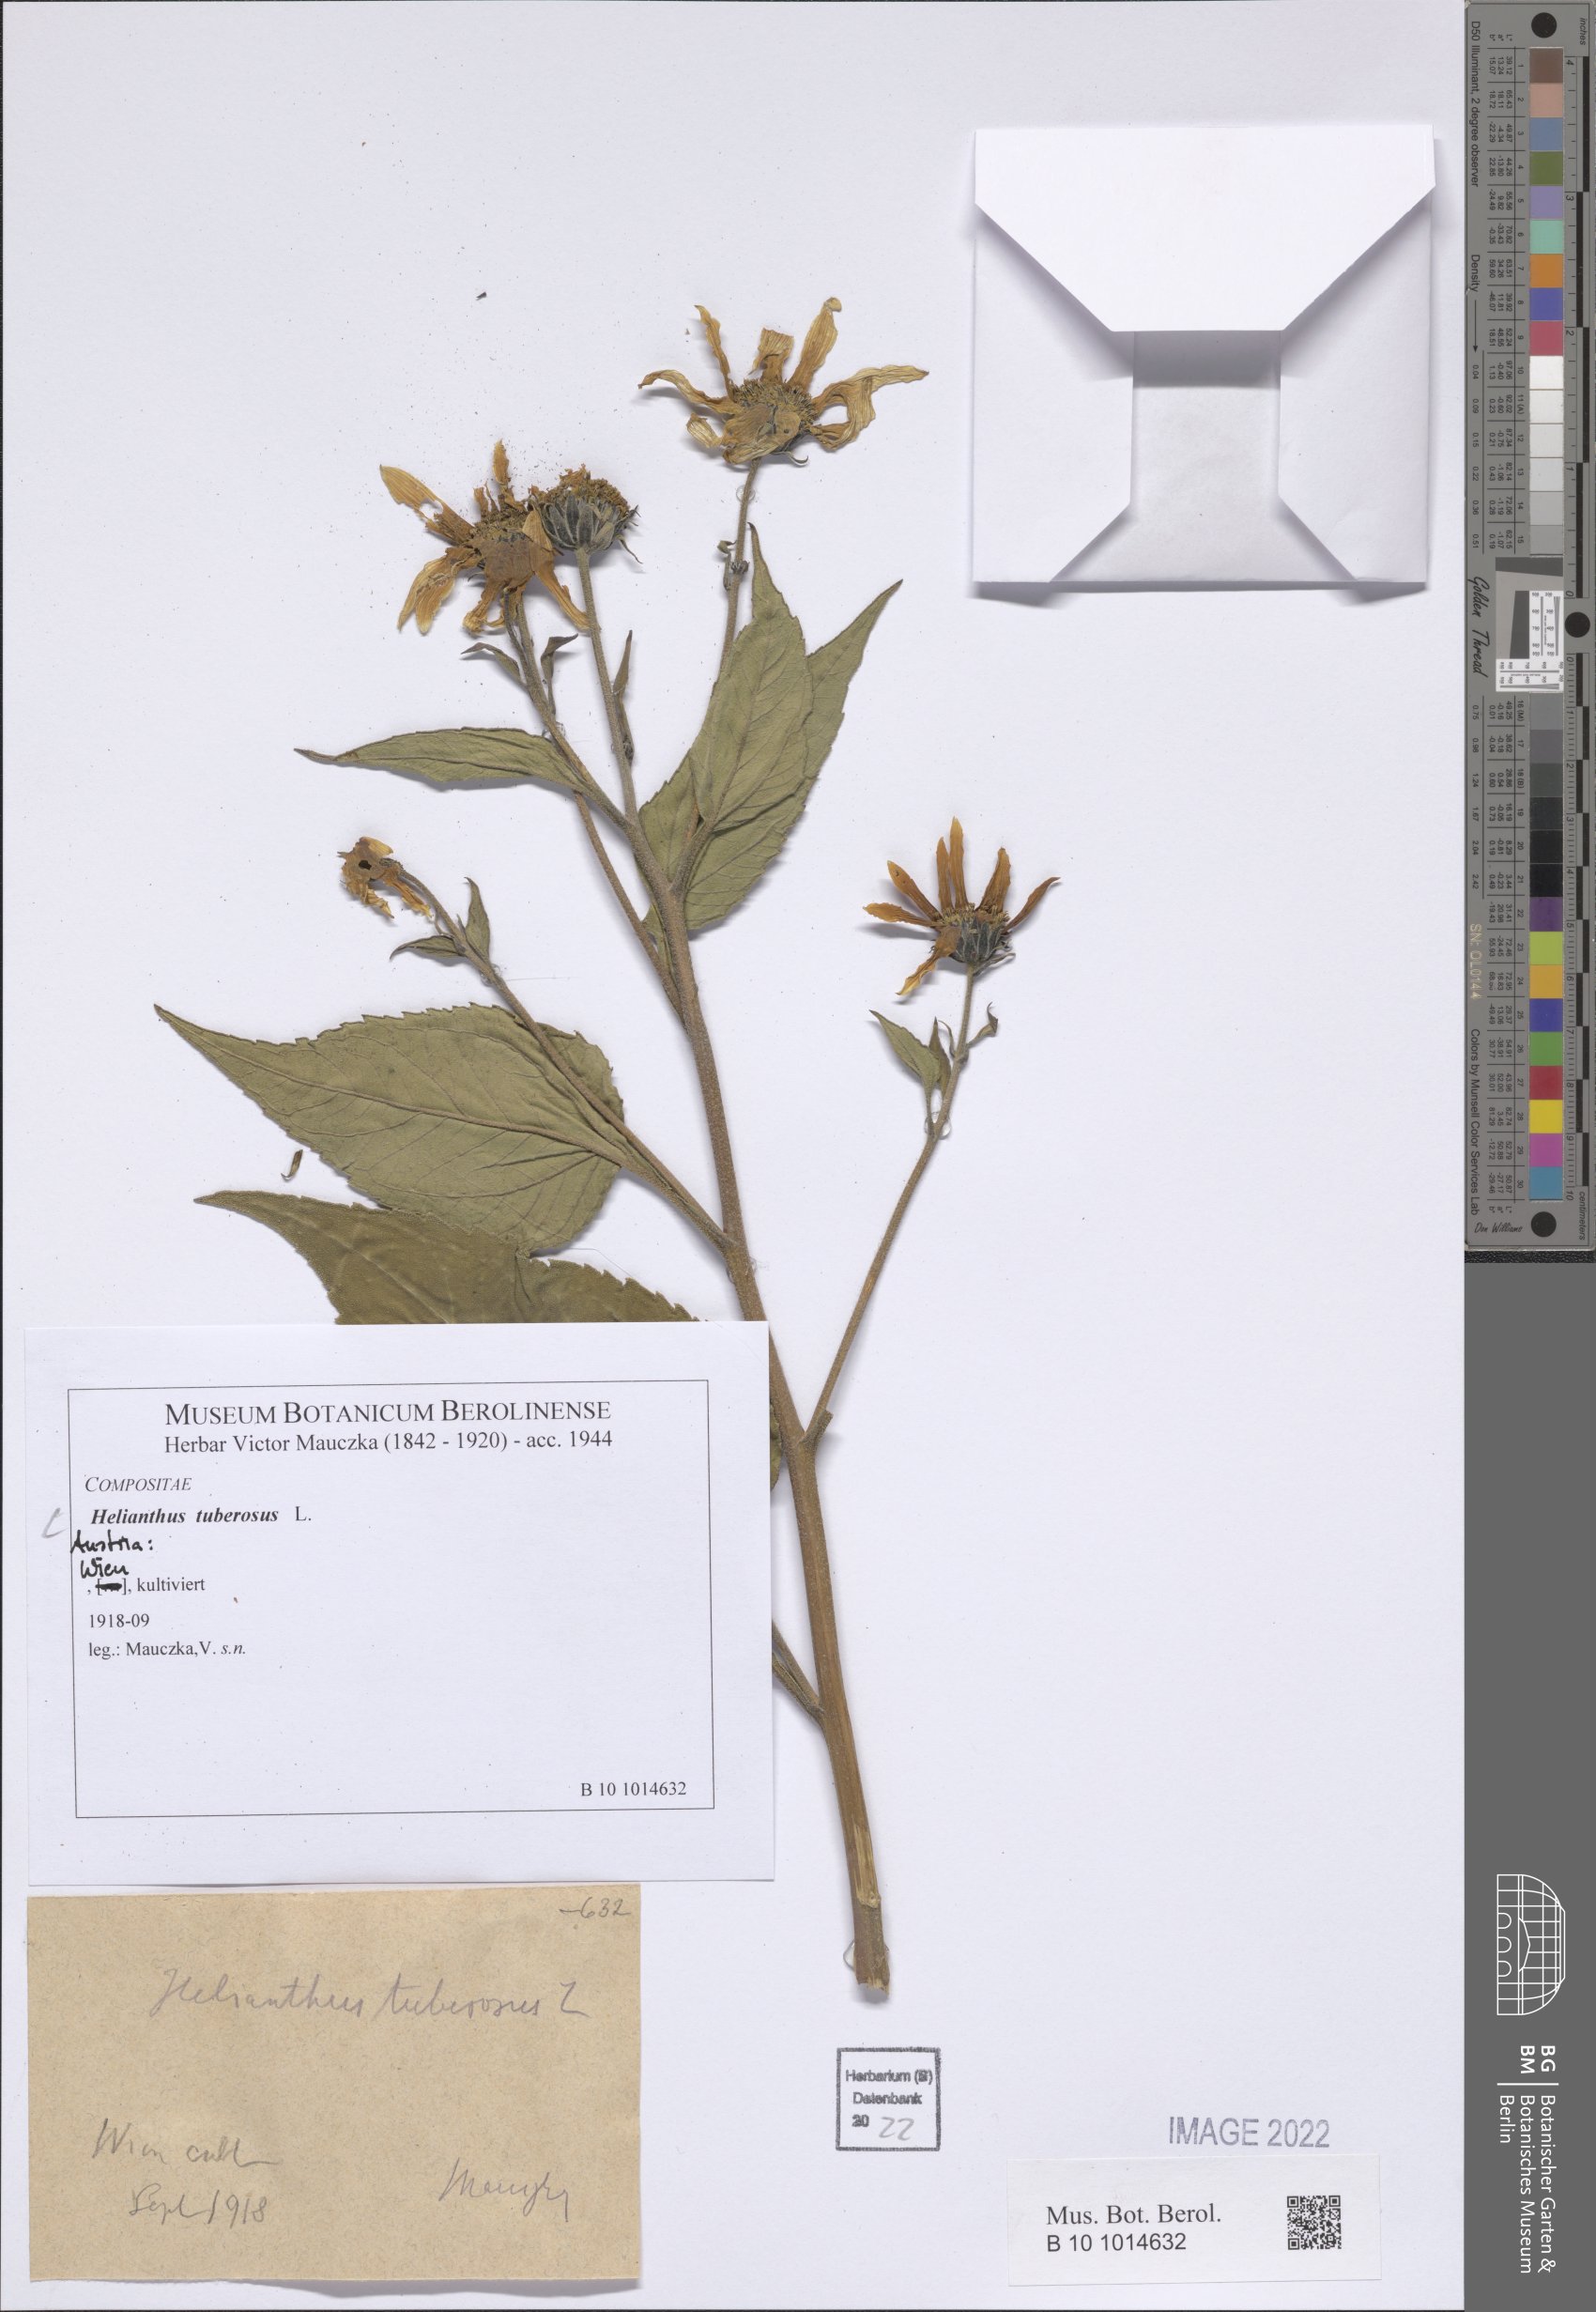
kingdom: Plantae
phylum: Tracheophyta
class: Magnoliopsida
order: Asterales
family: Asteraceae
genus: Helianthus
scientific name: Helianthus tuberosus
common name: Jerusalem artichoke
